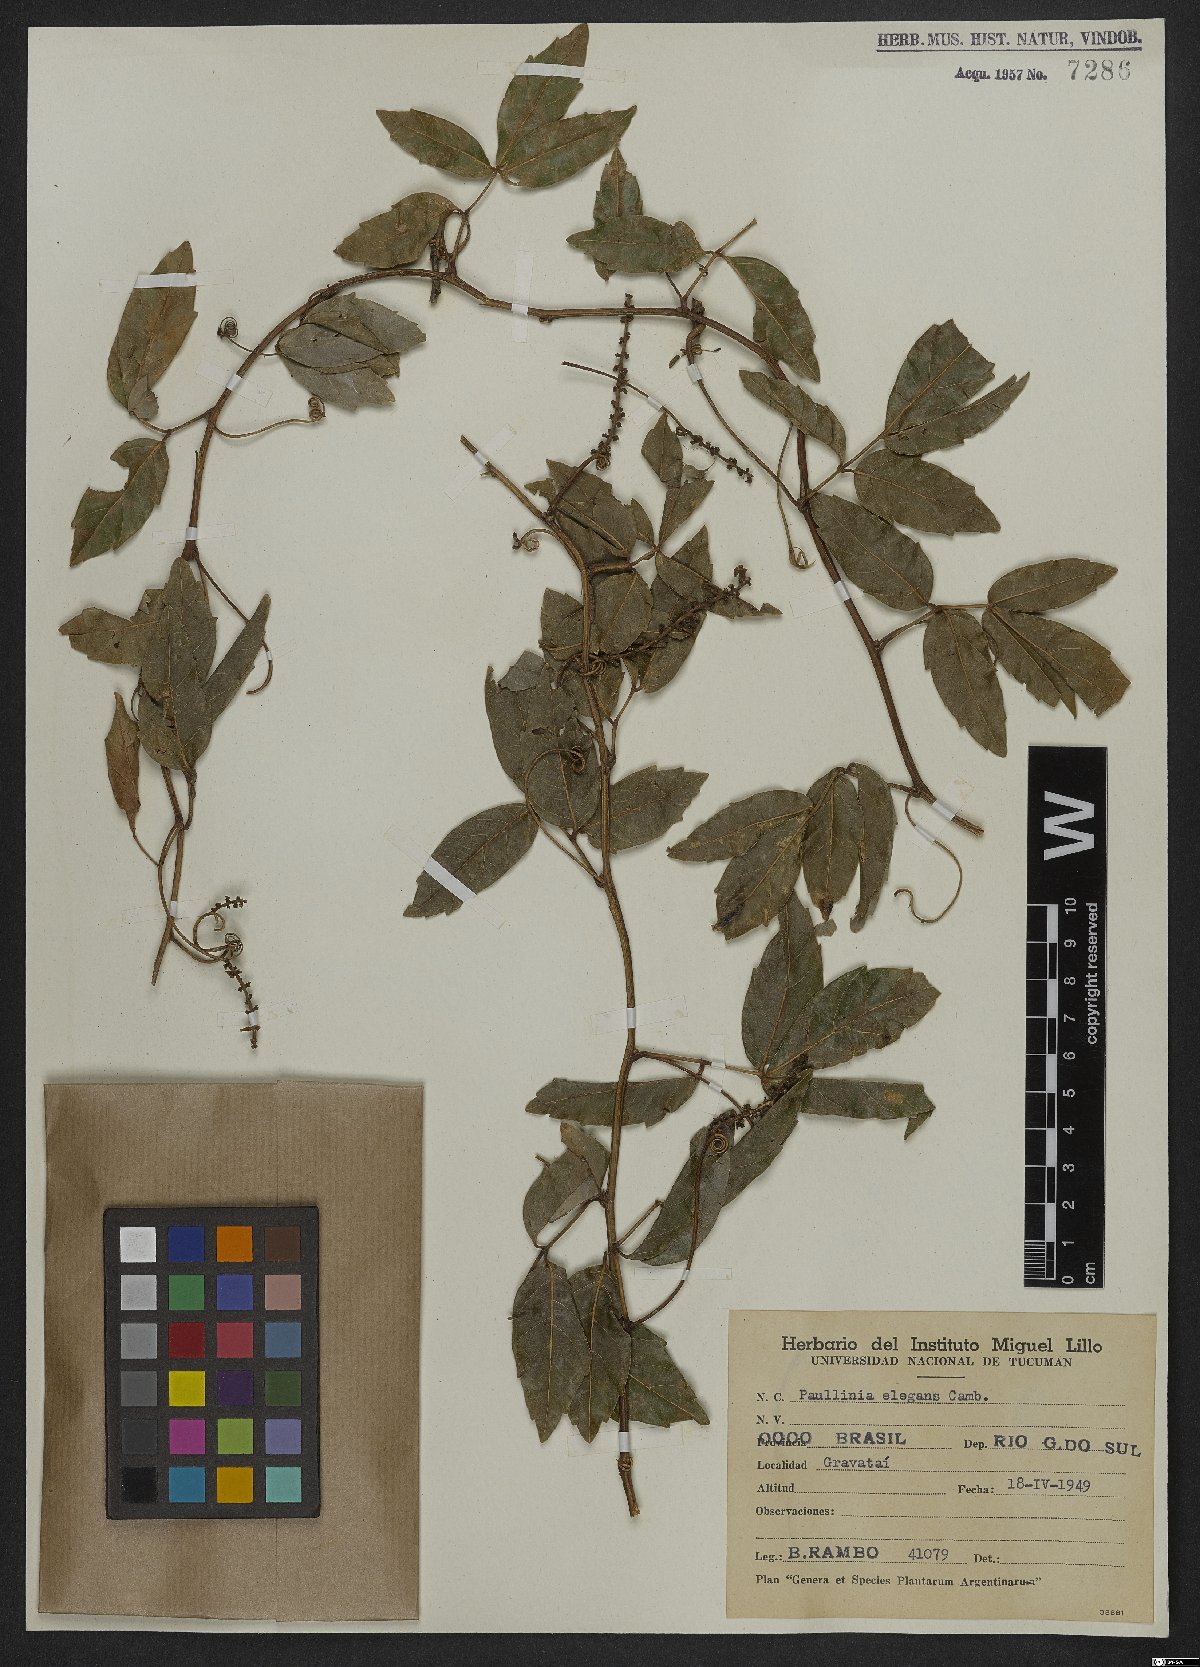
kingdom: Plantae
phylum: Tracheophyta
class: Magnoliopsida
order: Sapindales
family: Sapindaceae
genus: Paullinia
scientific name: Paullinia elegans
